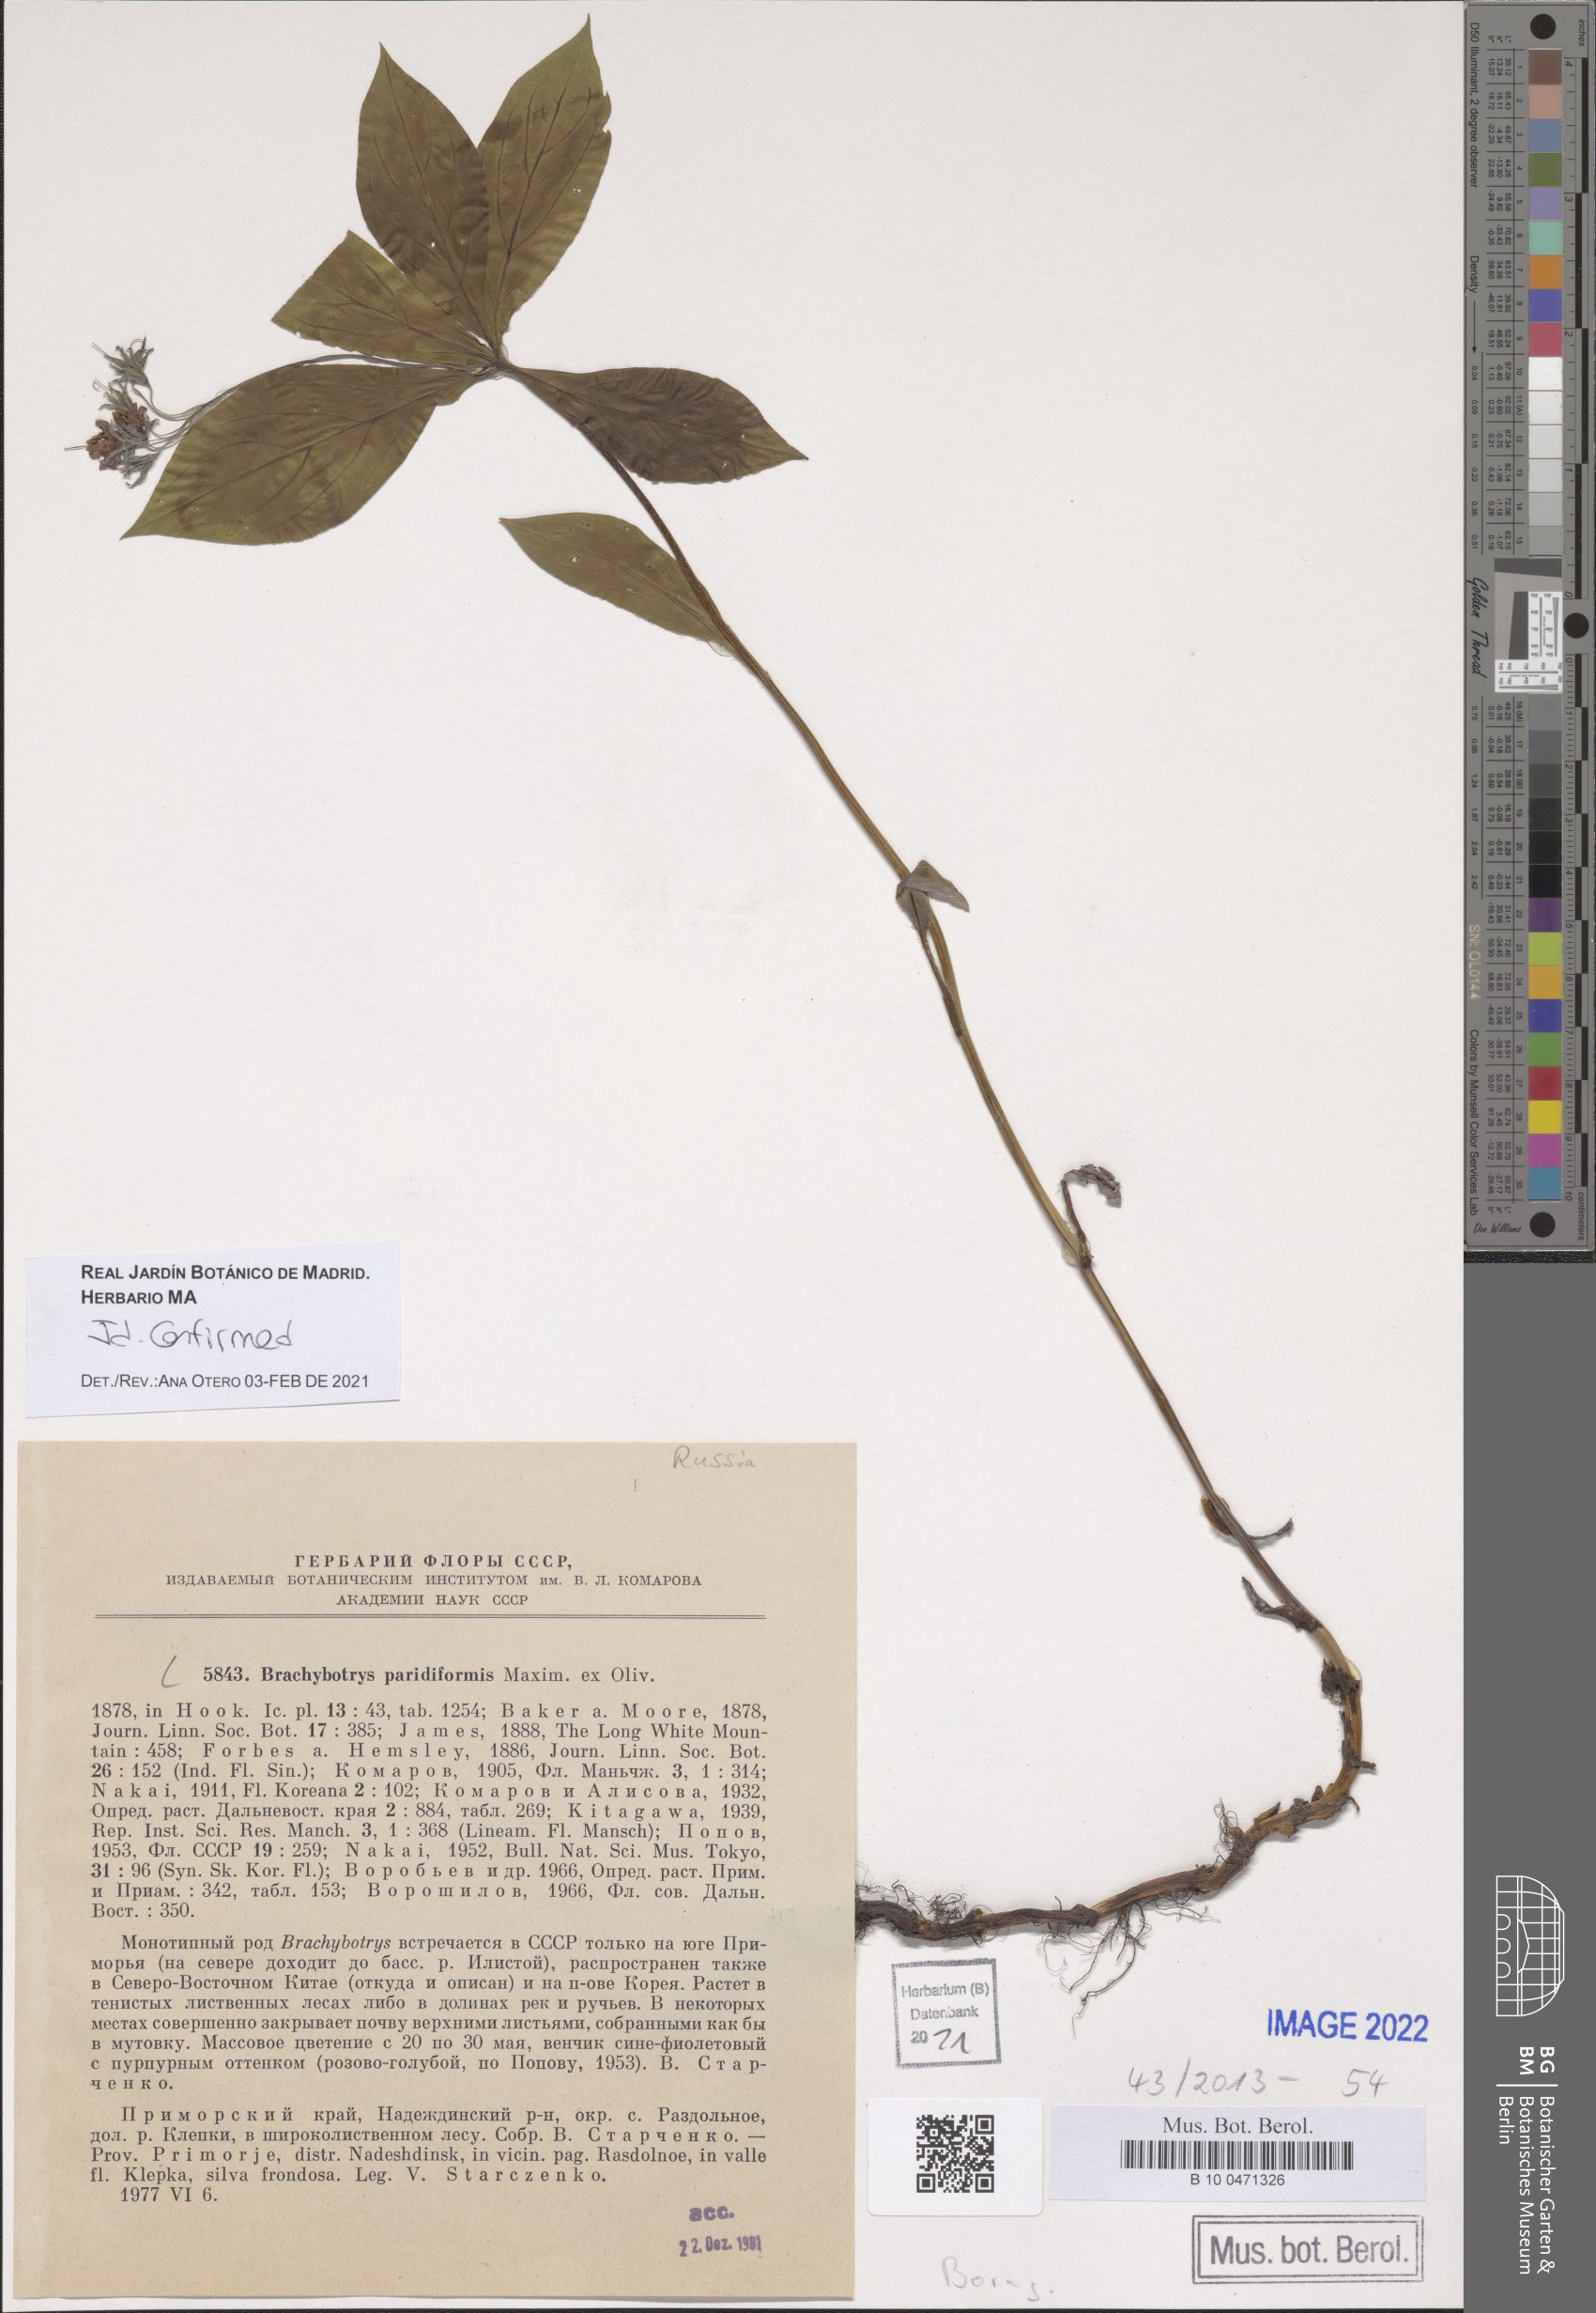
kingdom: Plantae
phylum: Tracheophyta
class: Magnoliopsida
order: Boraginales
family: Boraginaceae
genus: Brachybotrys
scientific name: Brachybotrys paridiformis
